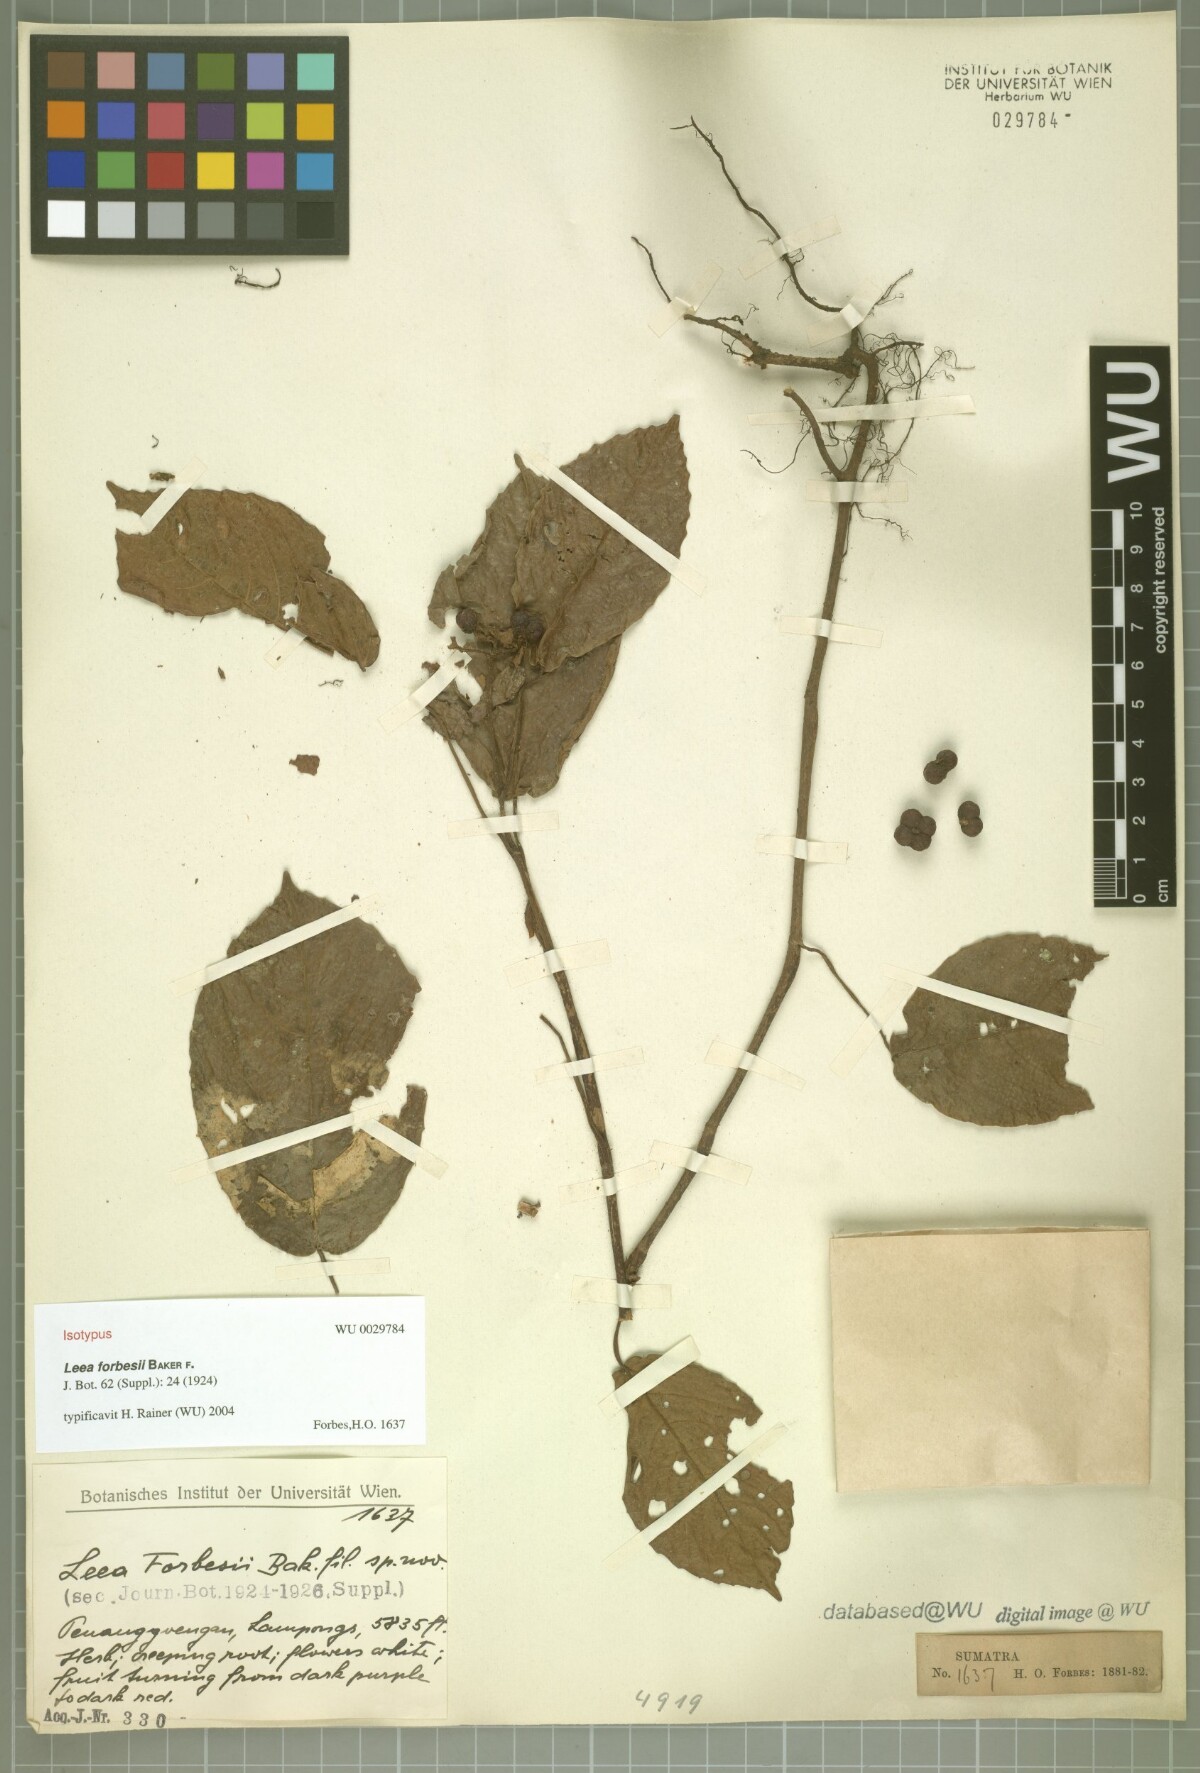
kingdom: Plantae
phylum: Tracheophyta
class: Magnoliopsida
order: Vitales
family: Vitaceae
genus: Leea
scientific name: Leea simplicifolia
